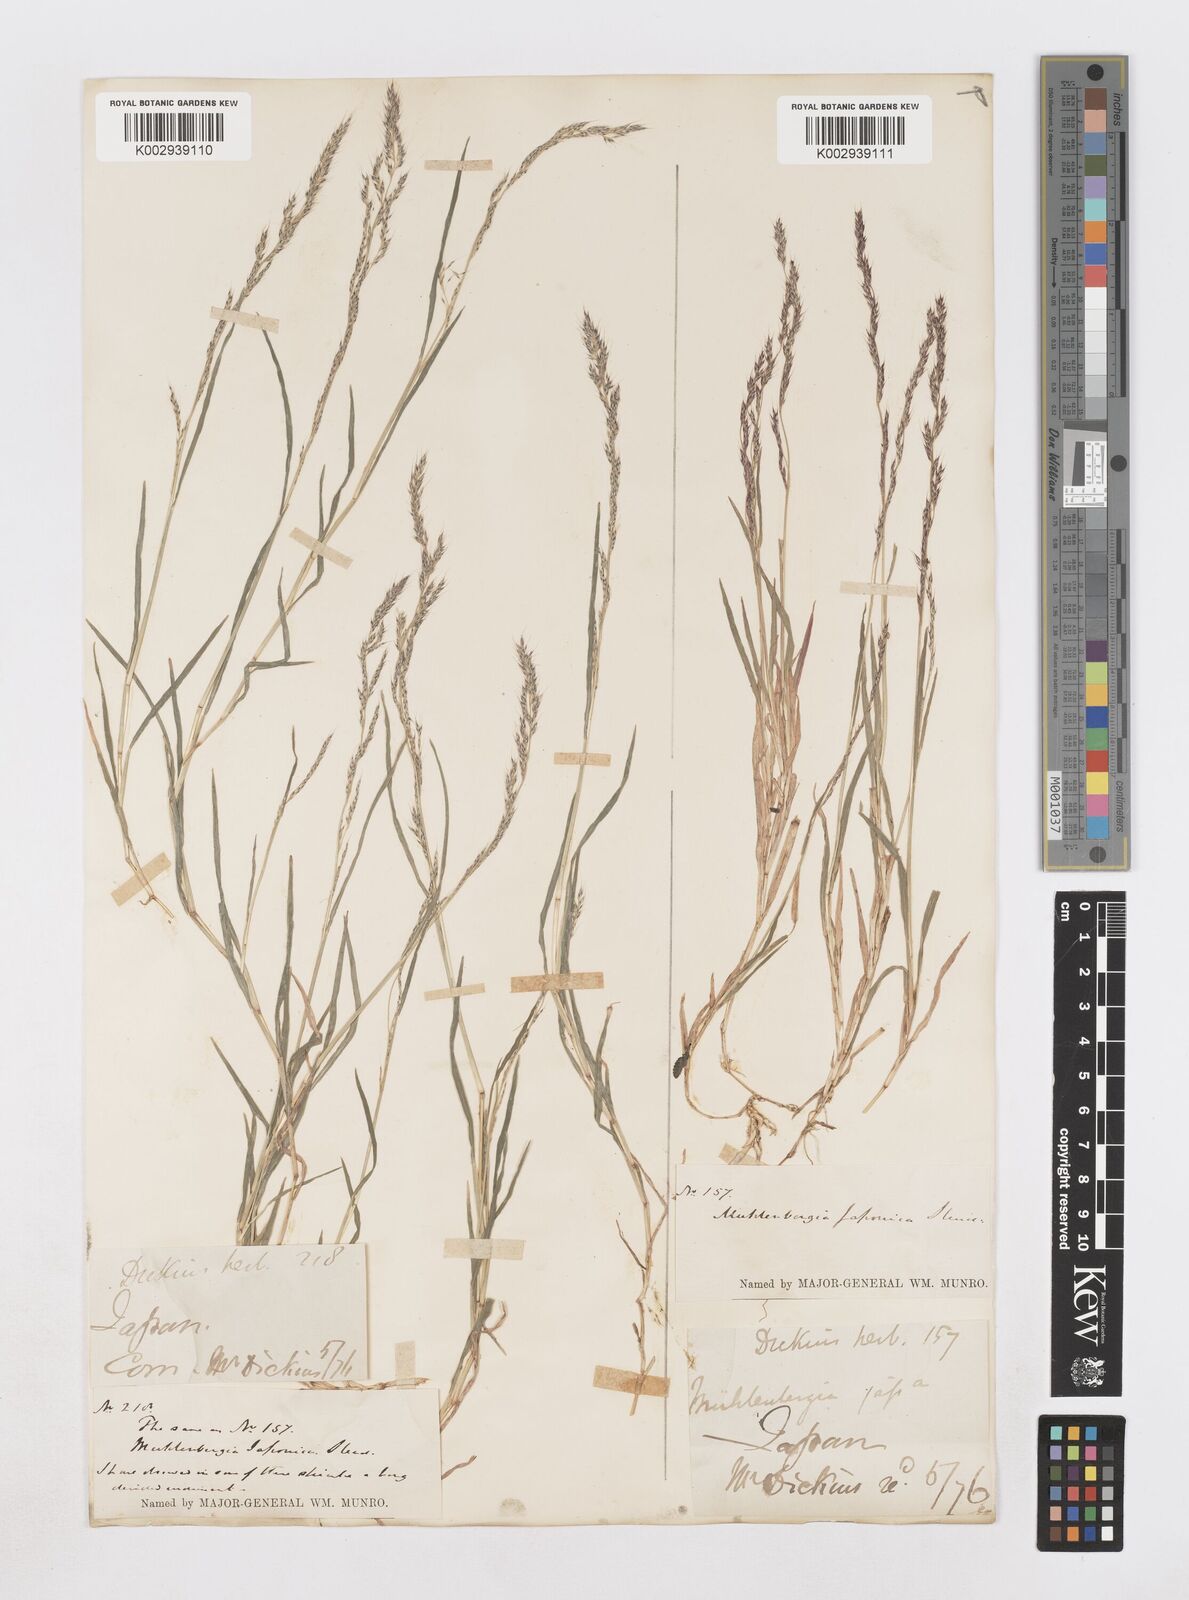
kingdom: Plantae
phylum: Tracheophyta
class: Liliopsida
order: Poales
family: Poaceae
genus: Muhlenbergia
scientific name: Muhlenbergia japonica
